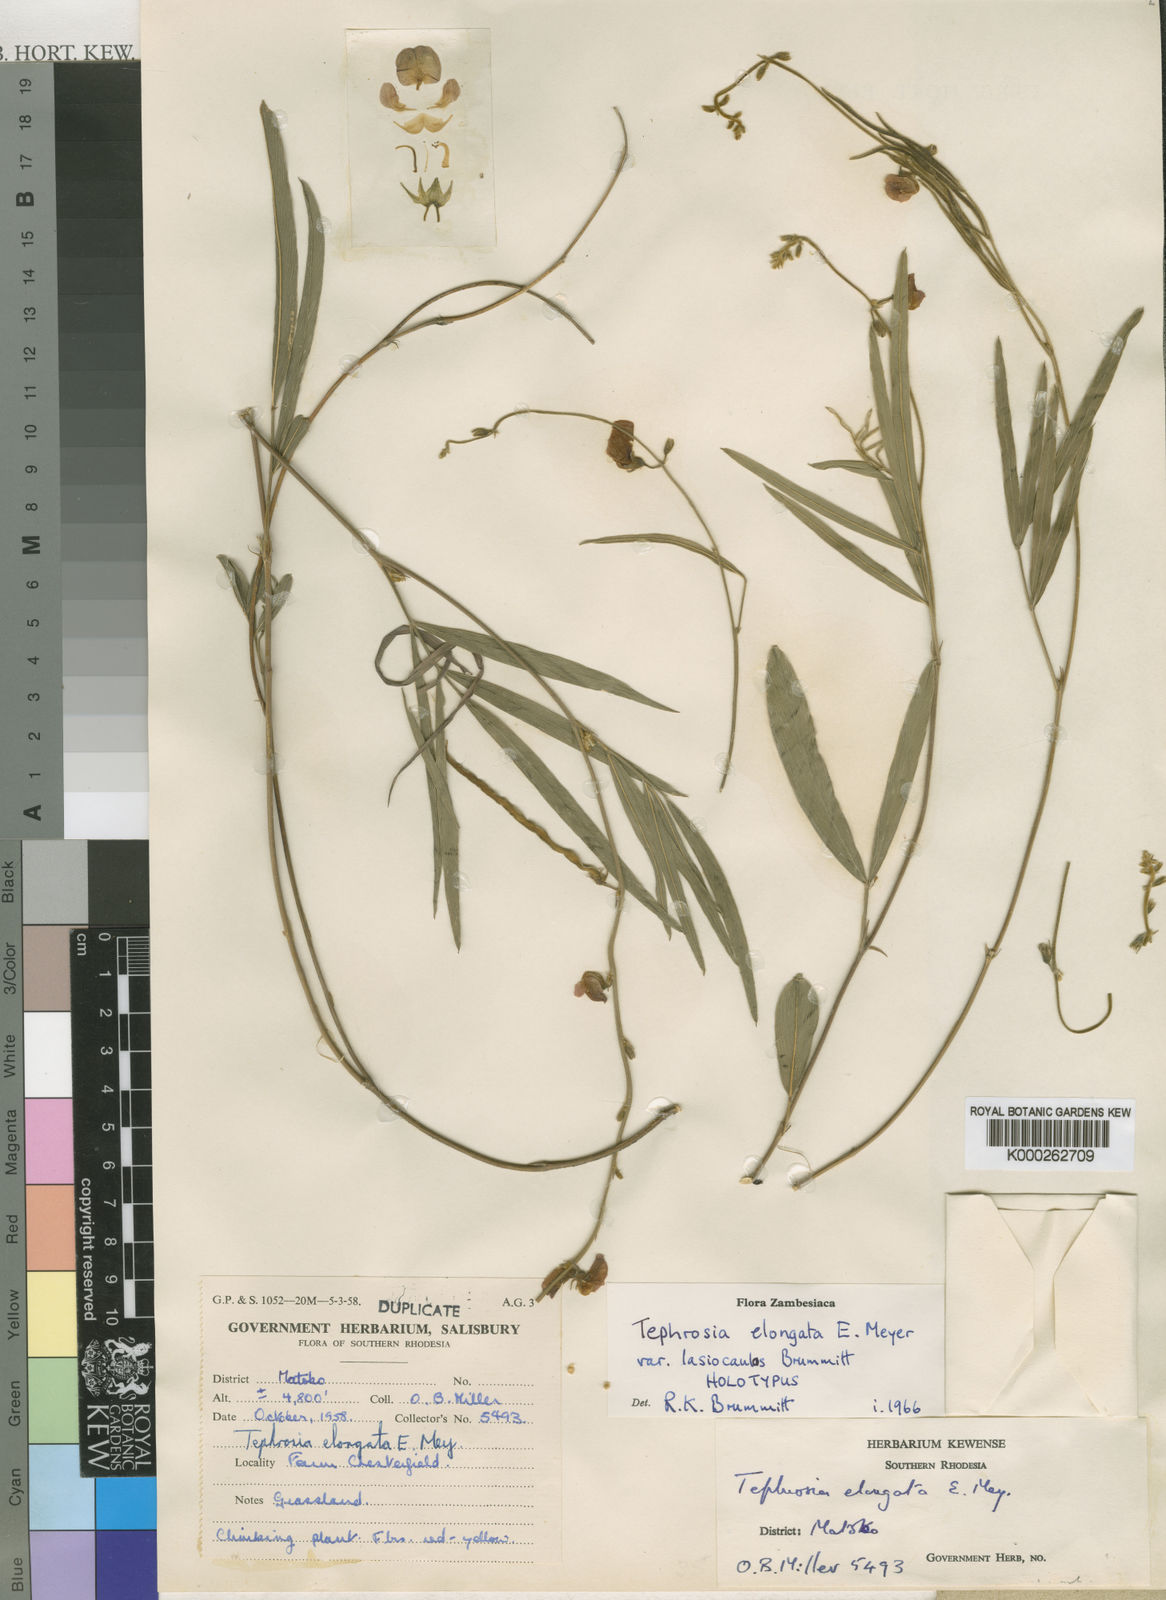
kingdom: Plantae
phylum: Tracheophyta
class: Magnoliopsida
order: Fabales
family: Fabaceae
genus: Tephrosia
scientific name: Tephrosia
